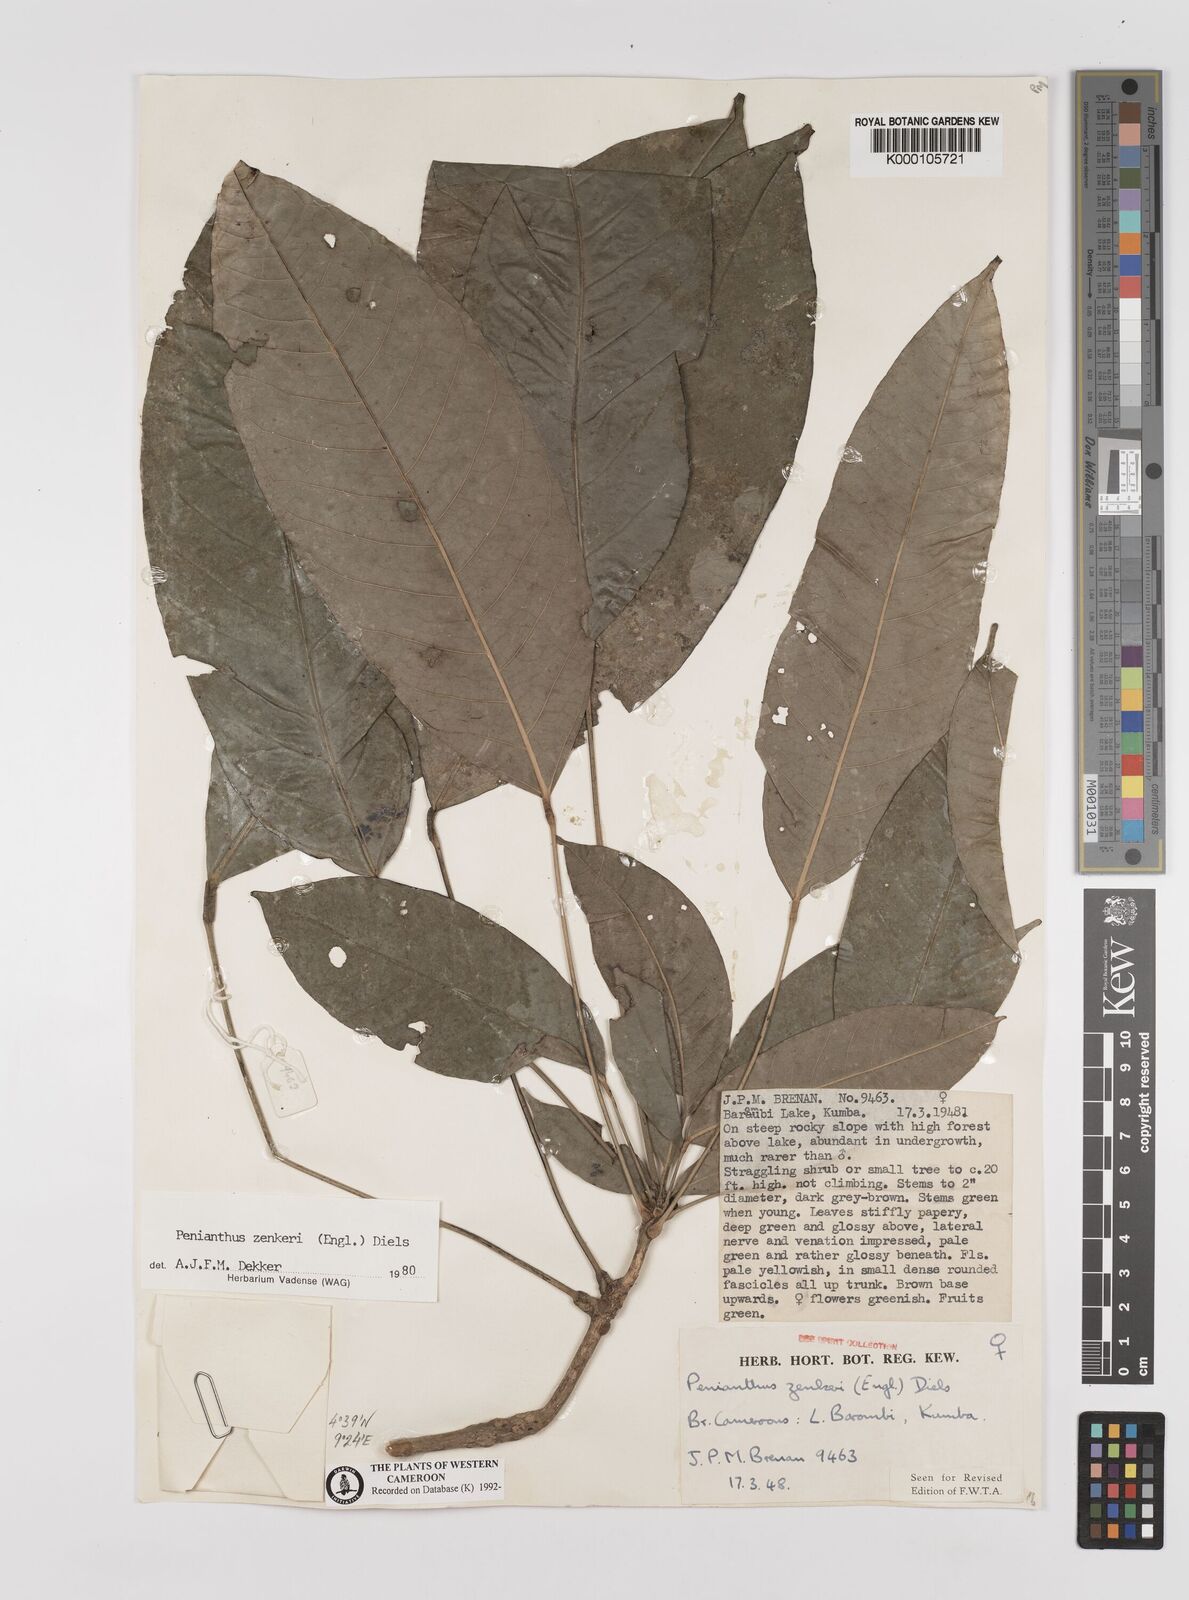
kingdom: Plantae
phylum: Tracheophyta
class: Magnoliopsida
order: Ranunculales
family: Menispermaceae
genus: Penianthus
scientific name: Penianthus zenkeri
